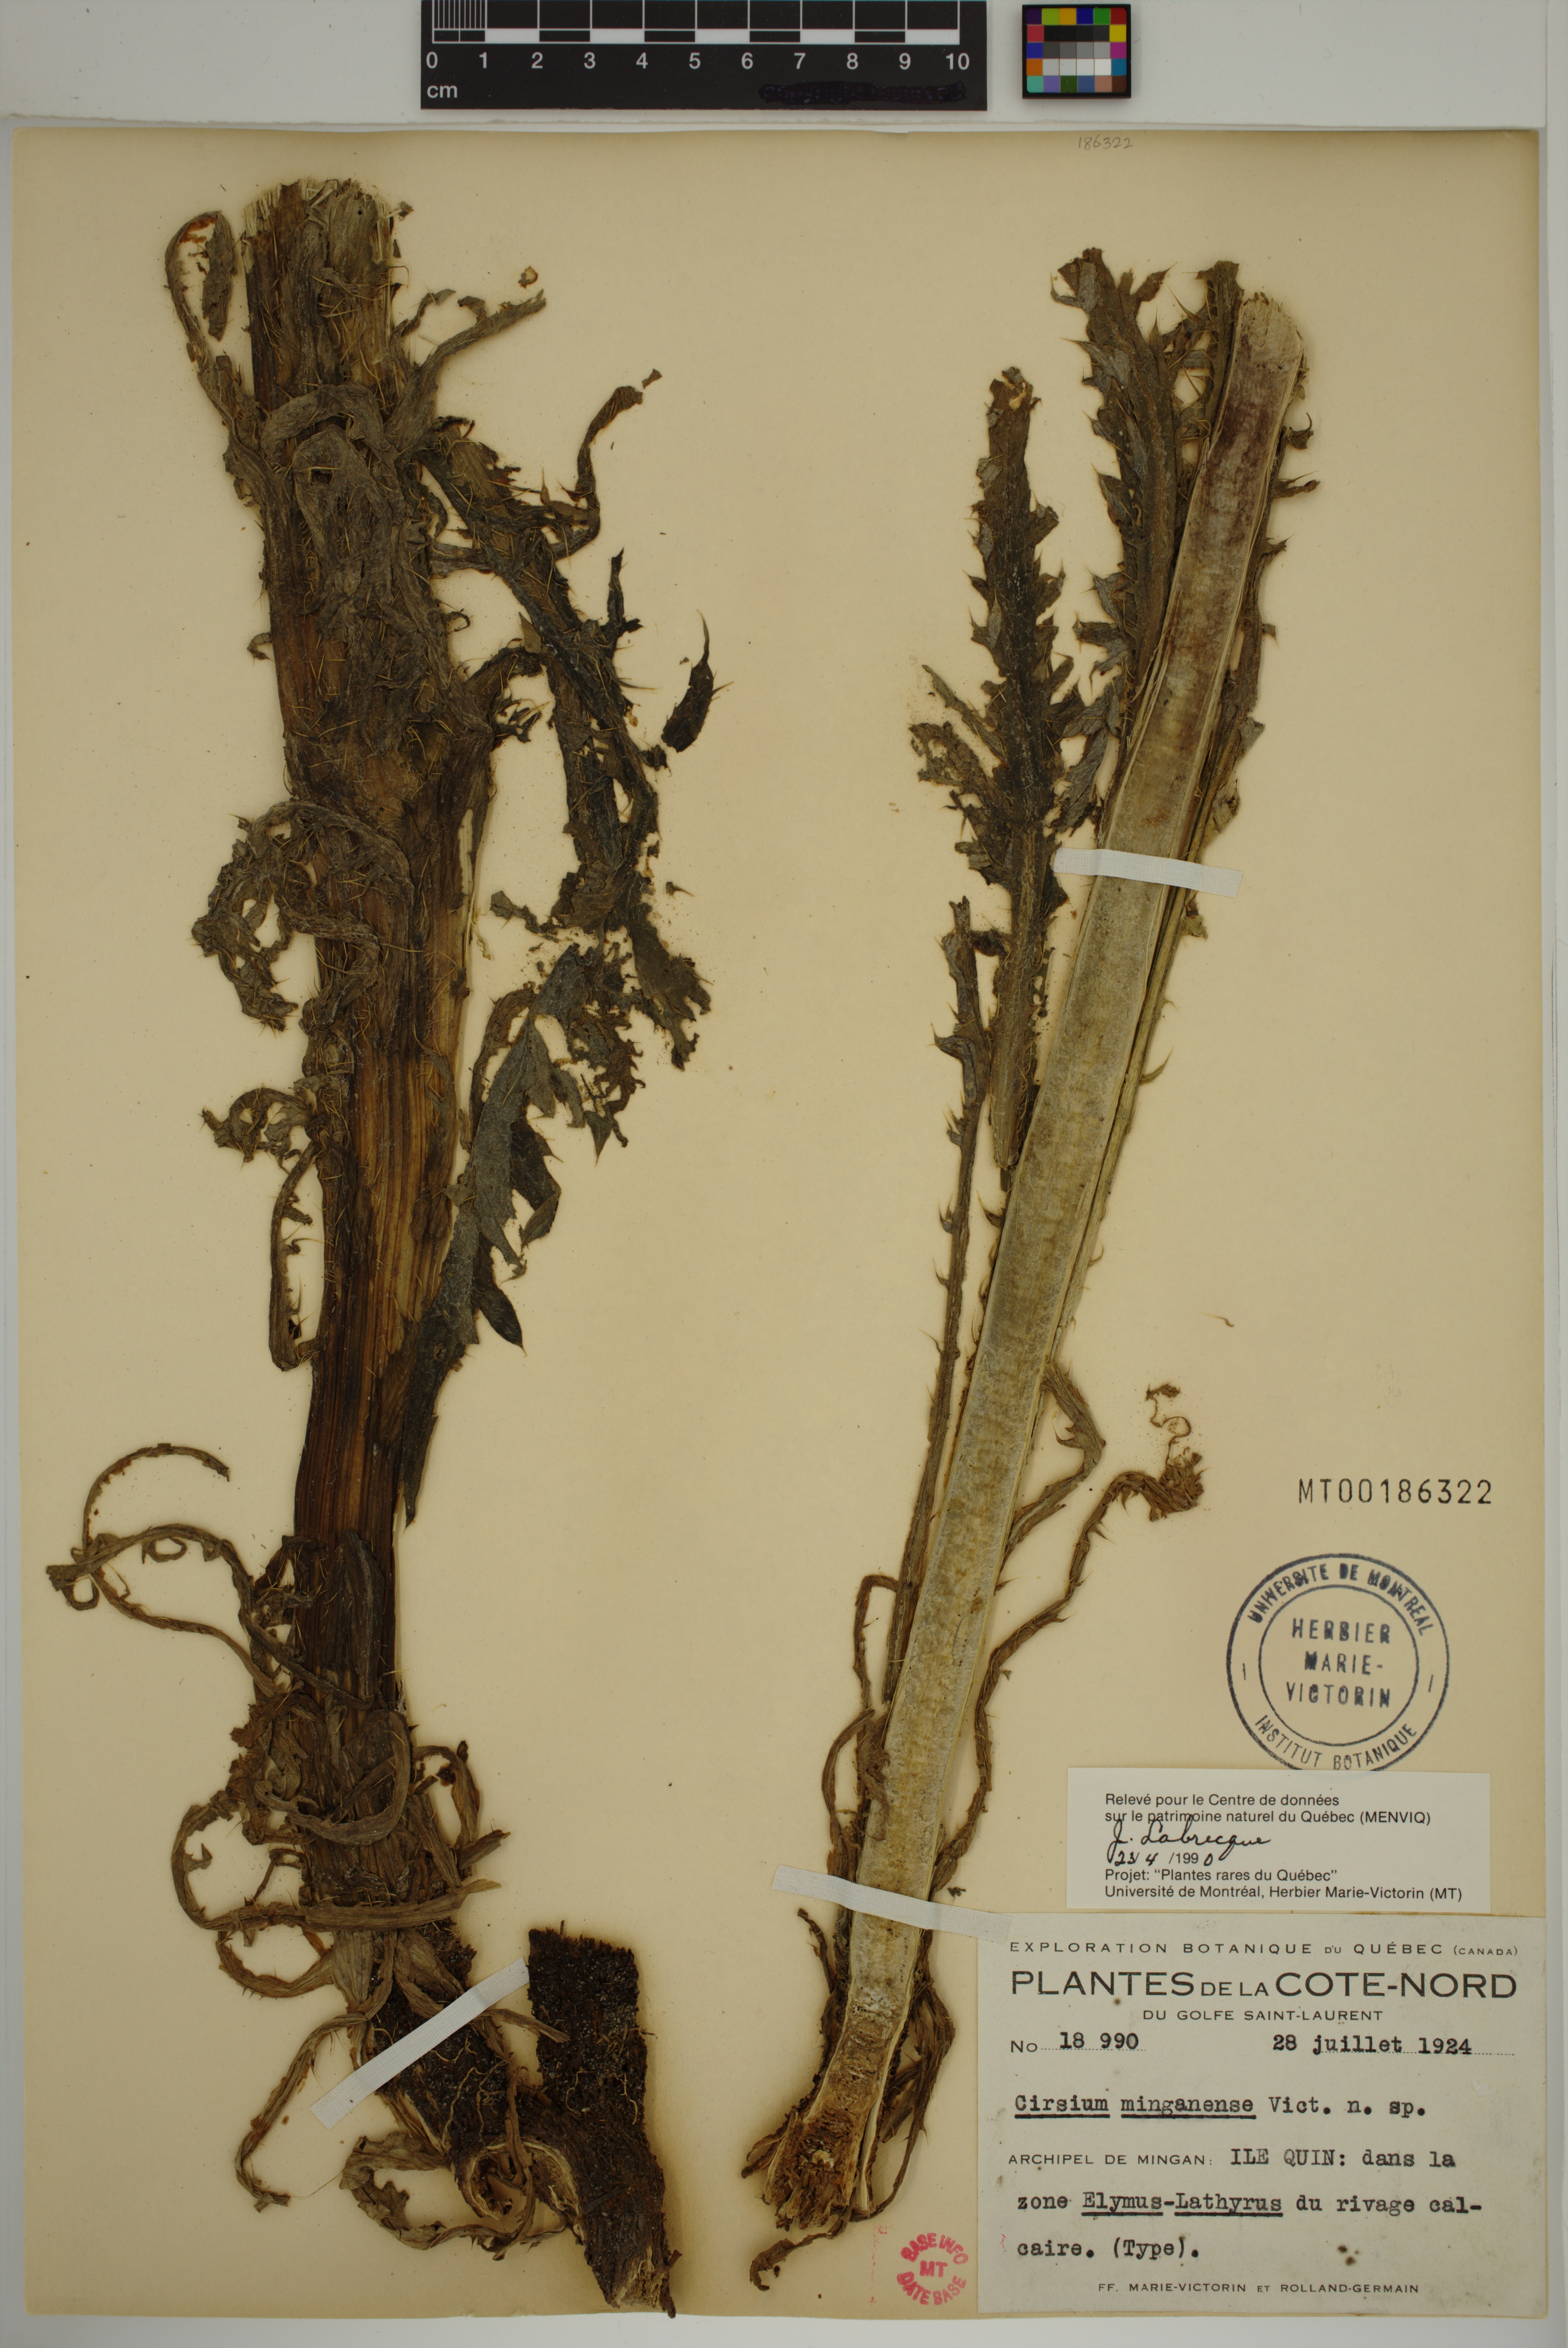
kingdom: Plantae
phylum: Tracheophyta
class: Magnoliopsida
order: Asterales
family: Asteraceae
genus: Cirsium
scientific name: Cirsium scariosum
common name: Meadow thistle
